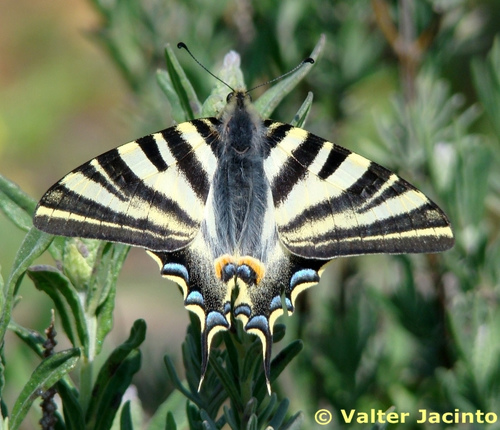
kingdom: Animalia
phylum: Arthropoda
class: Insecta
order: Lepidoptera
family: Papilionidae
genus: Iphiclides
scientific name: Iphiclides feisthamelii
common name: Iberian scarce swallowtail
